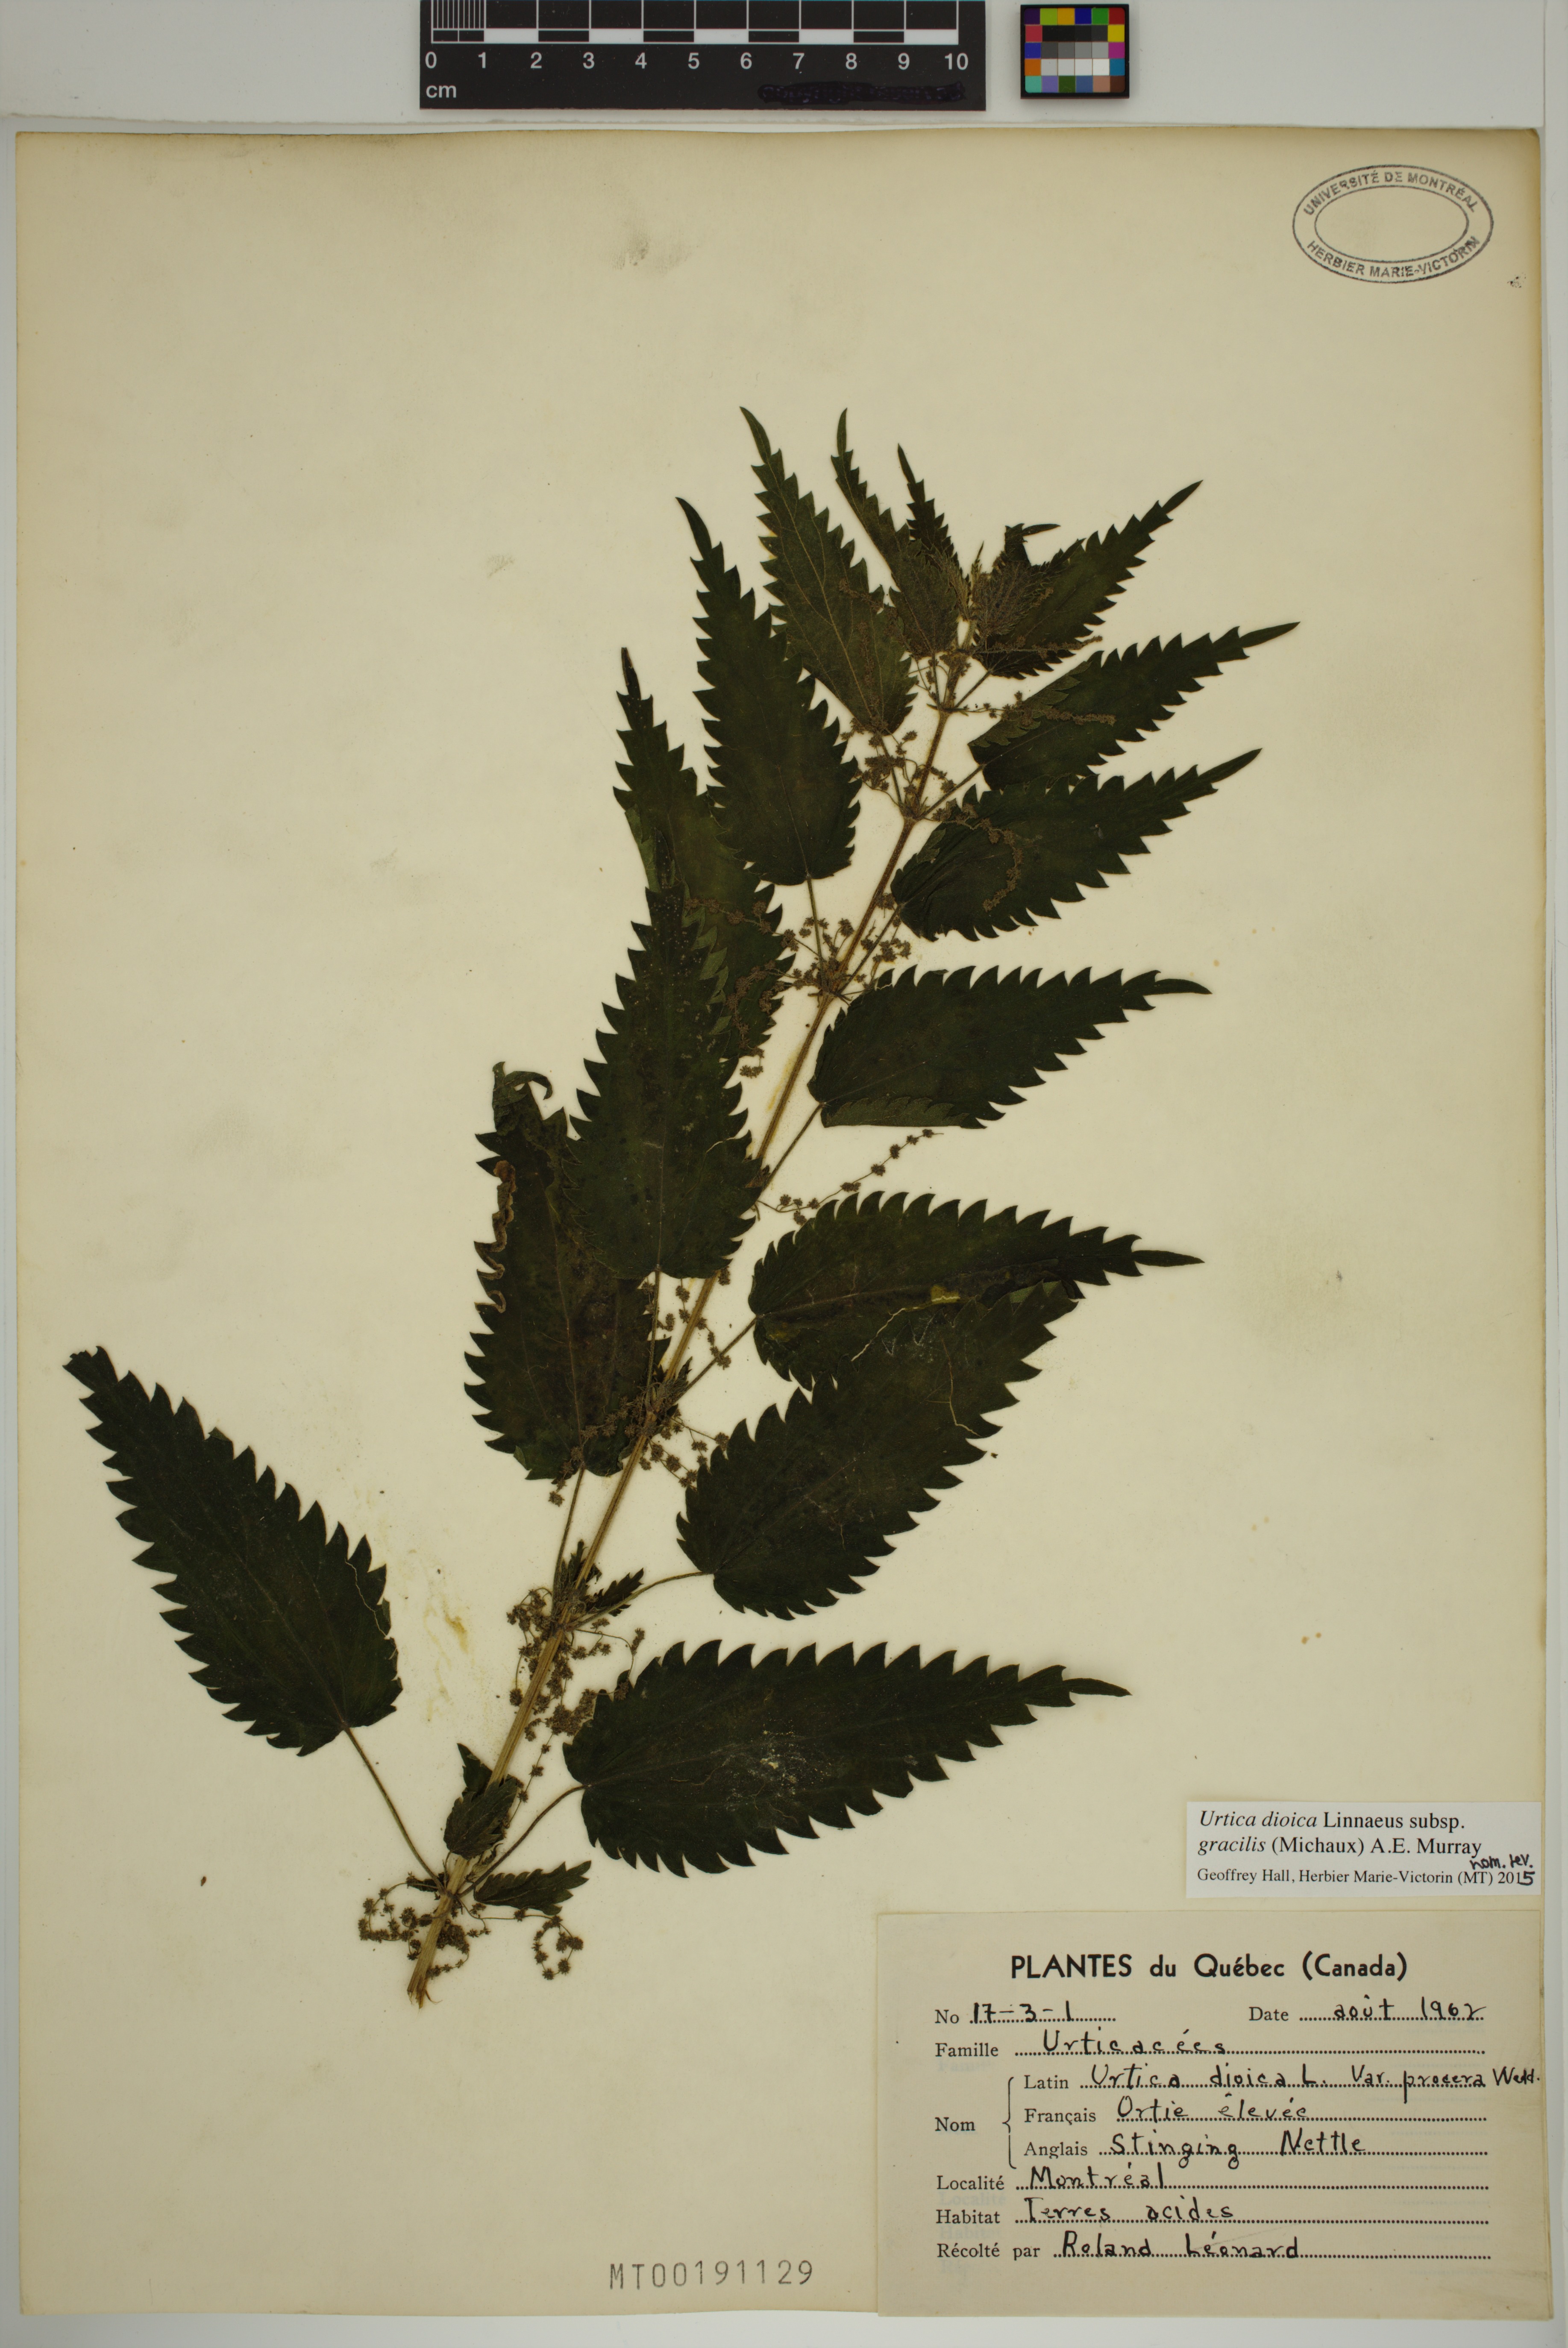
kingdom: Plantae
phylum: Tracheophyta
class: Magnoliopsida
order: Rosales
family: Urticaceae
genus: Urtica
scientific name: Urtica gracilis
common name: Slender stinging nettle
